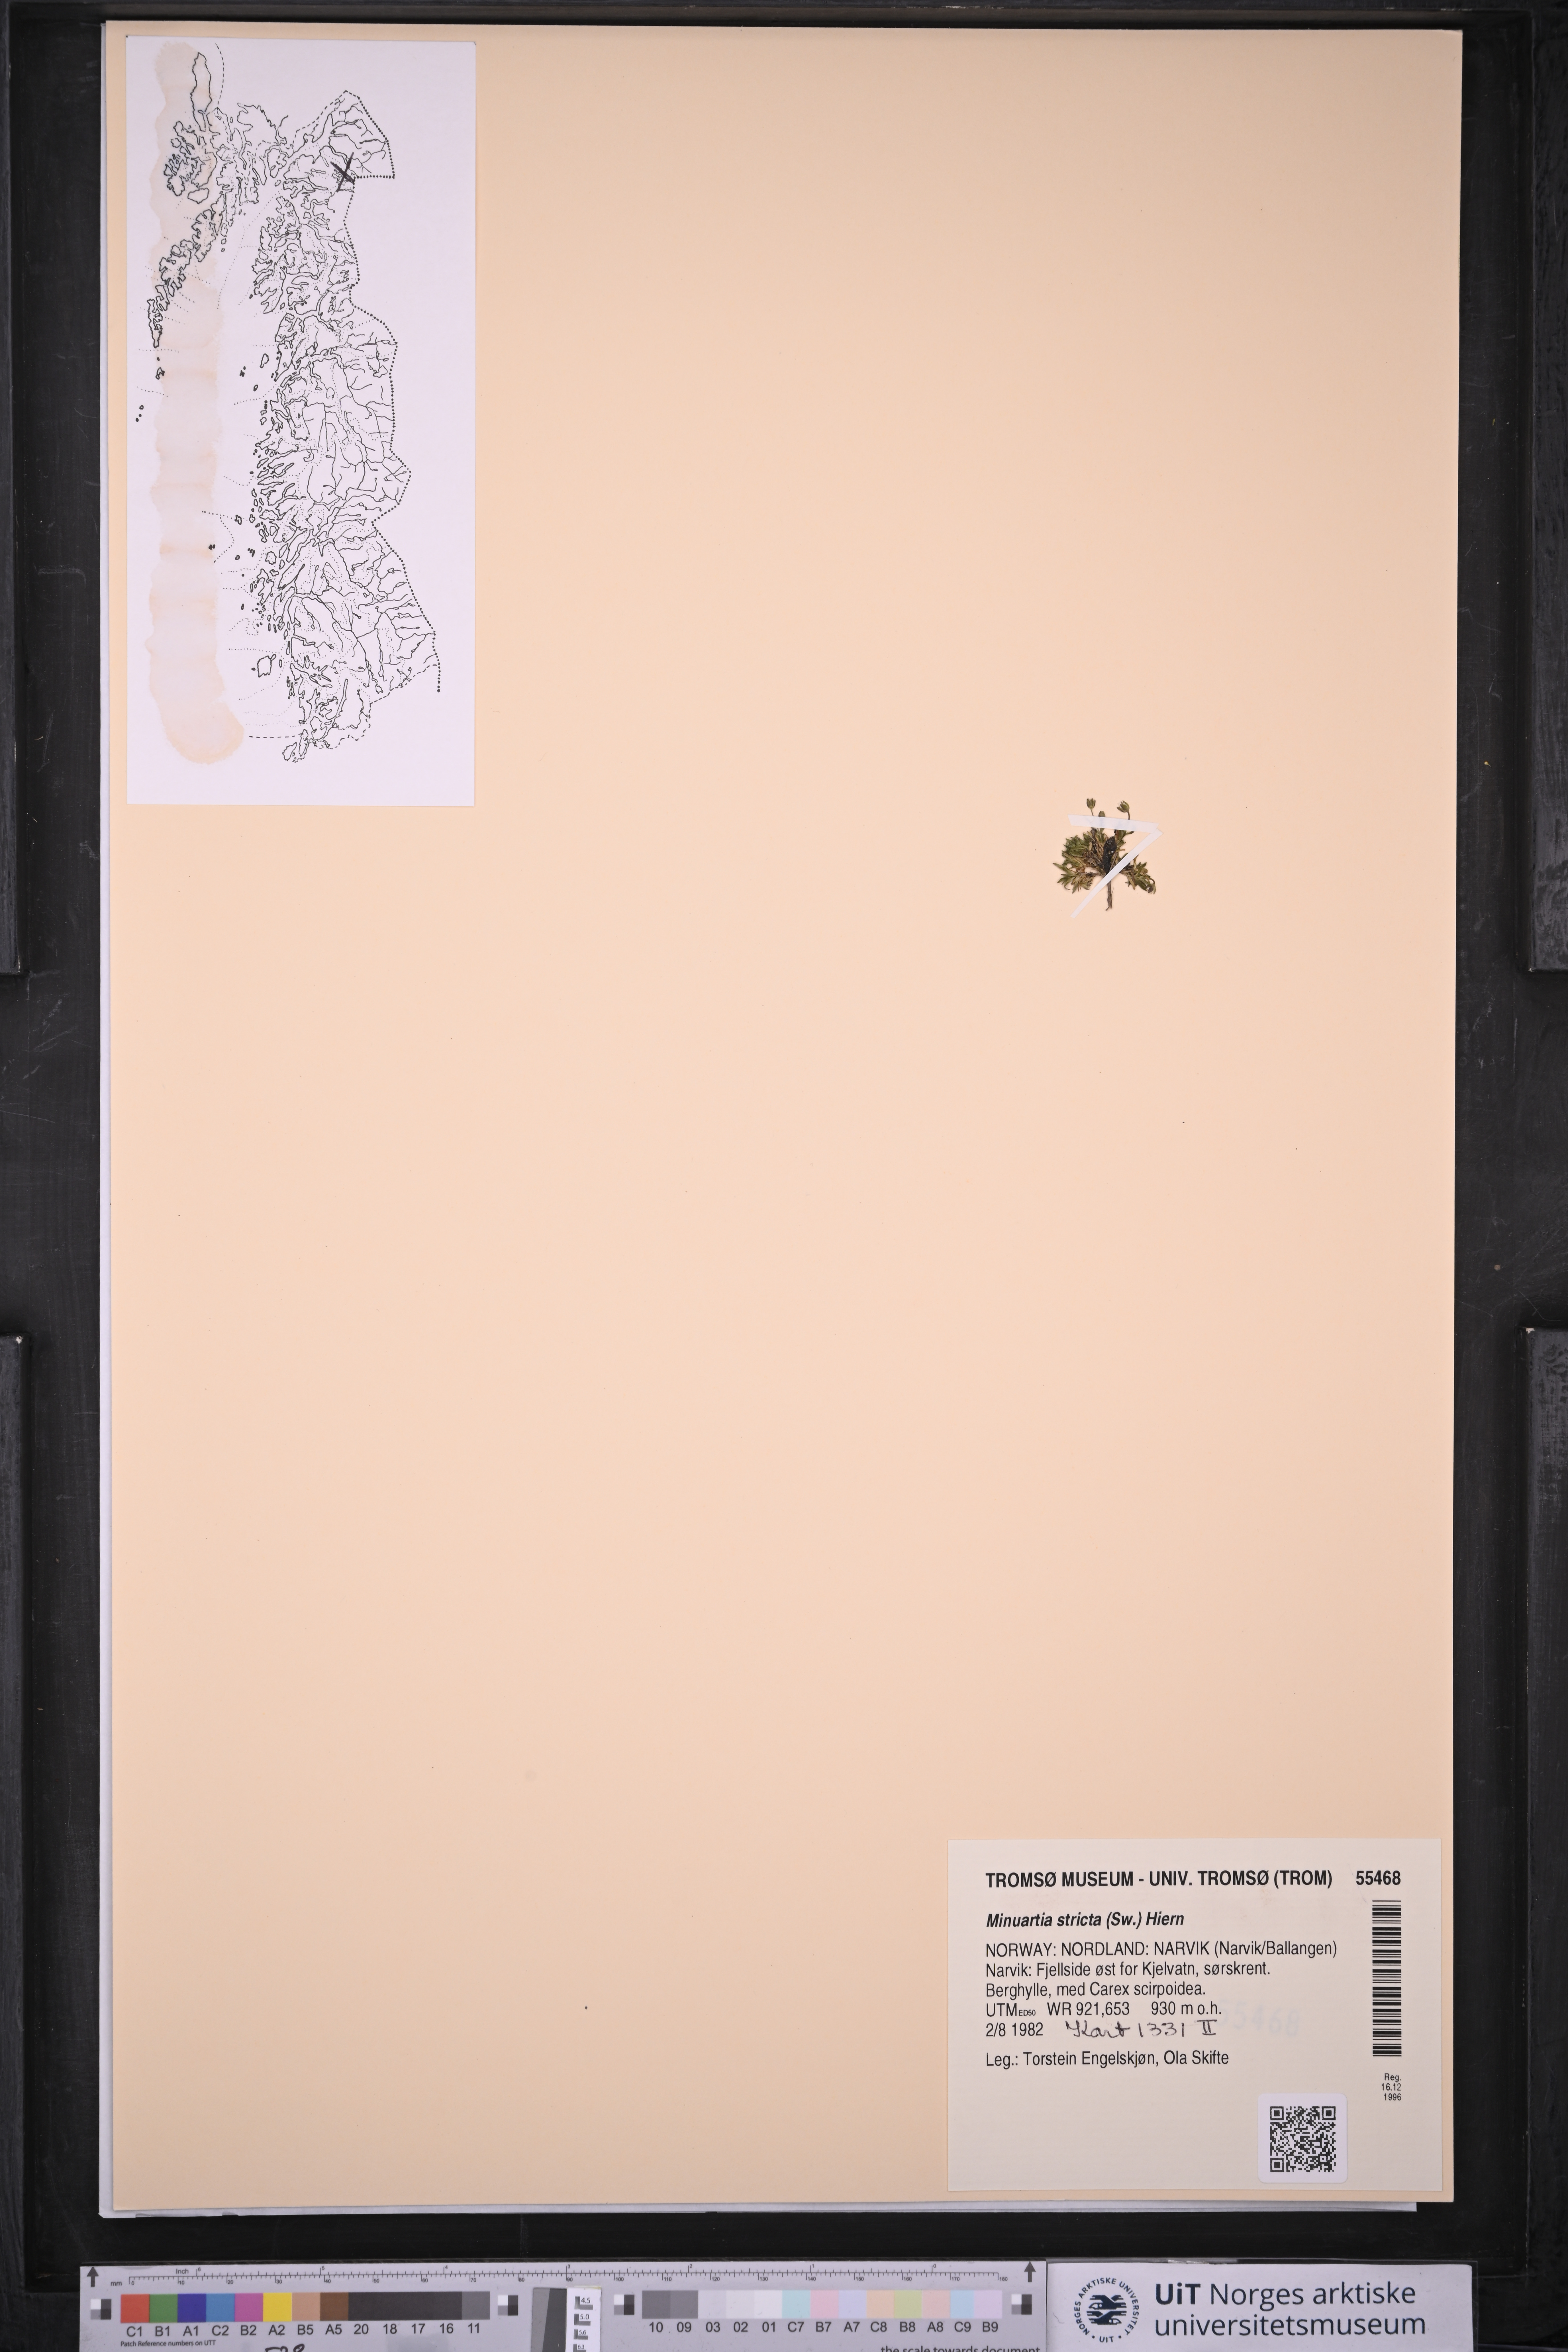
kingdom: Plantae
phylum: Tracheophyta
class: Magnoliopsida
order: Caryophyllales
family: Caryophyllaceae
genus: Sabulina
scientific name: Sabulina stricta
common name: Bog sandwort
